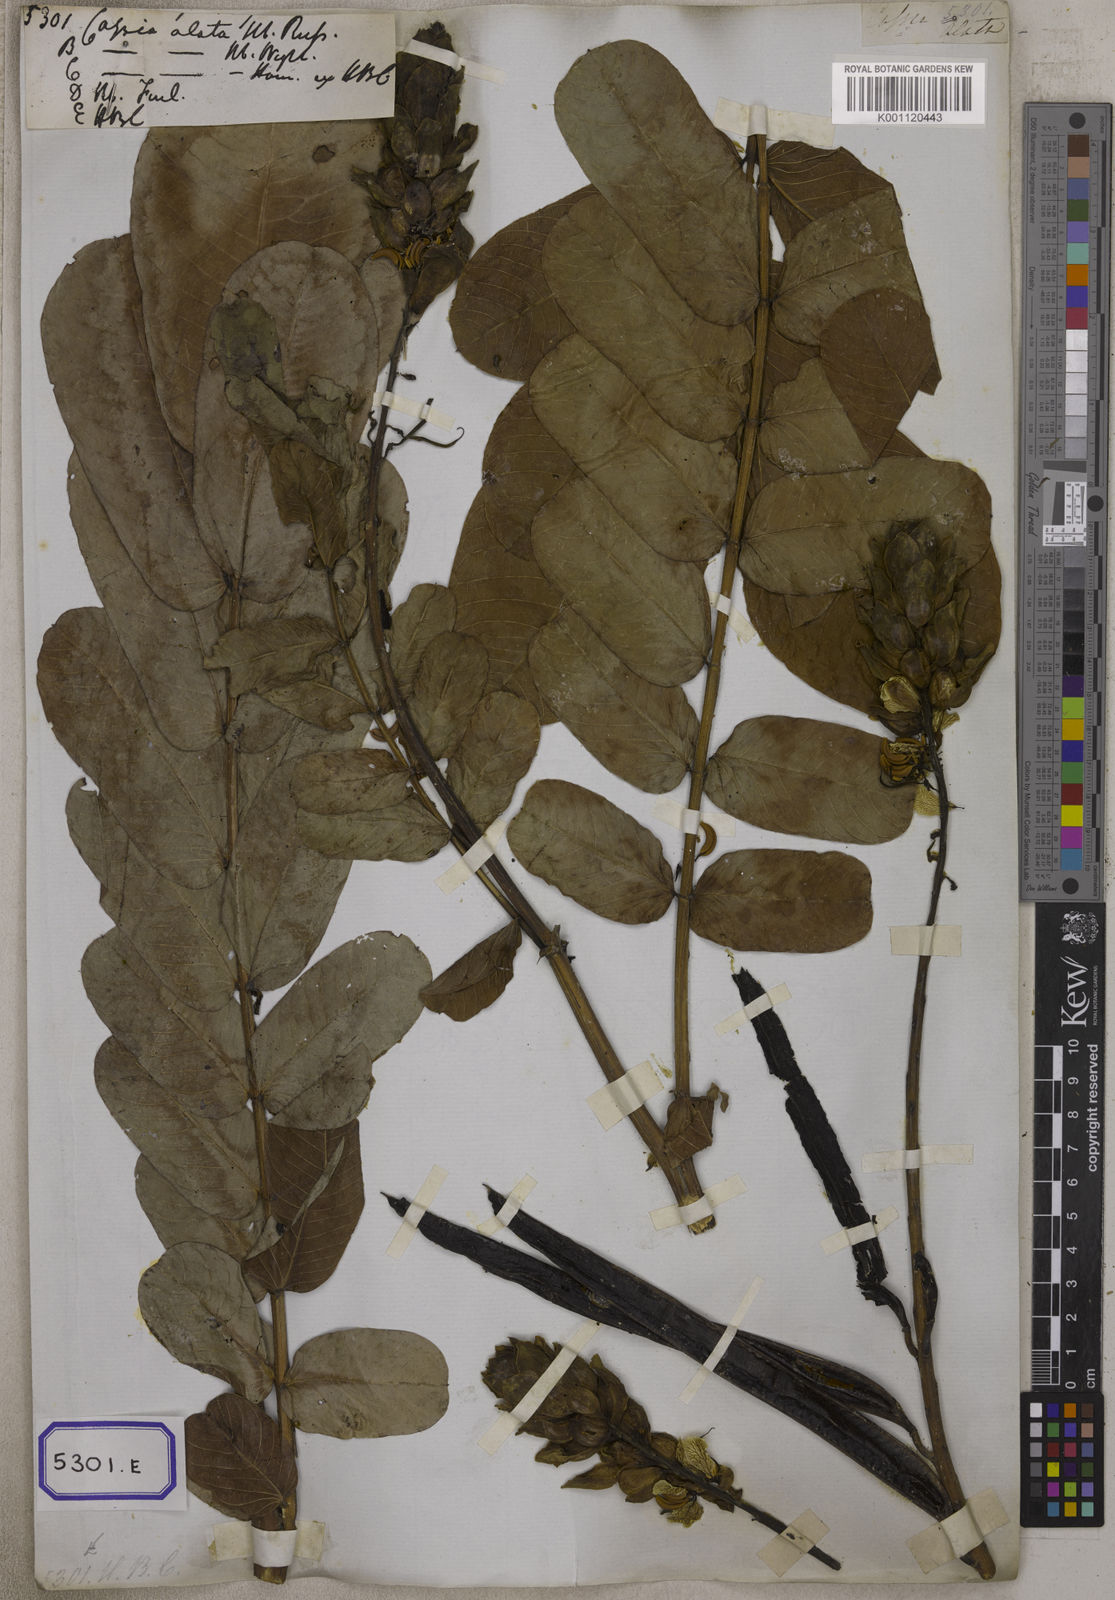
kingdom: Plantae
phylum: Tracheophyta
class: Magnoliopsida
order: Fabales
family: Fabaceae
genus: Senna
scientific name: Senna alata
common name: Emperor's candlesticks
